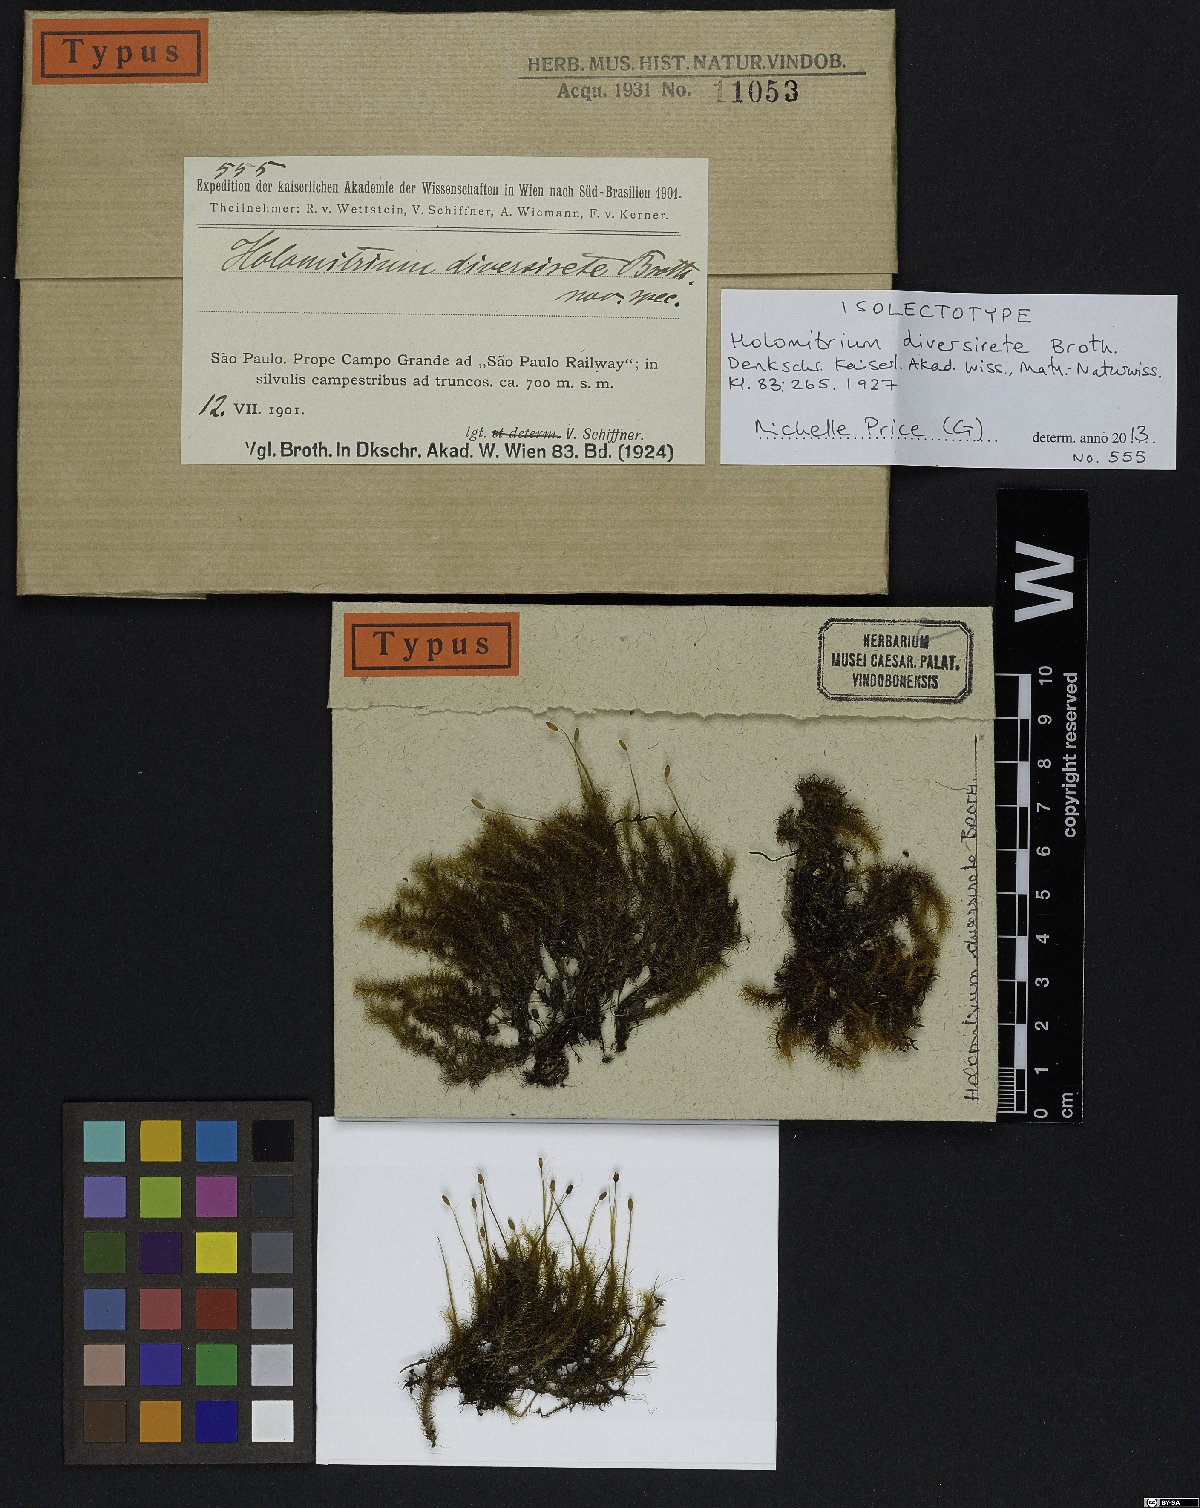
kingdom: Plantae
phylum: Bryophyta
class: Bryopsida
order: Dicranales
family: Dicranaceae
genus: Holomitrium
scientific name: Holomitrium diversirete
